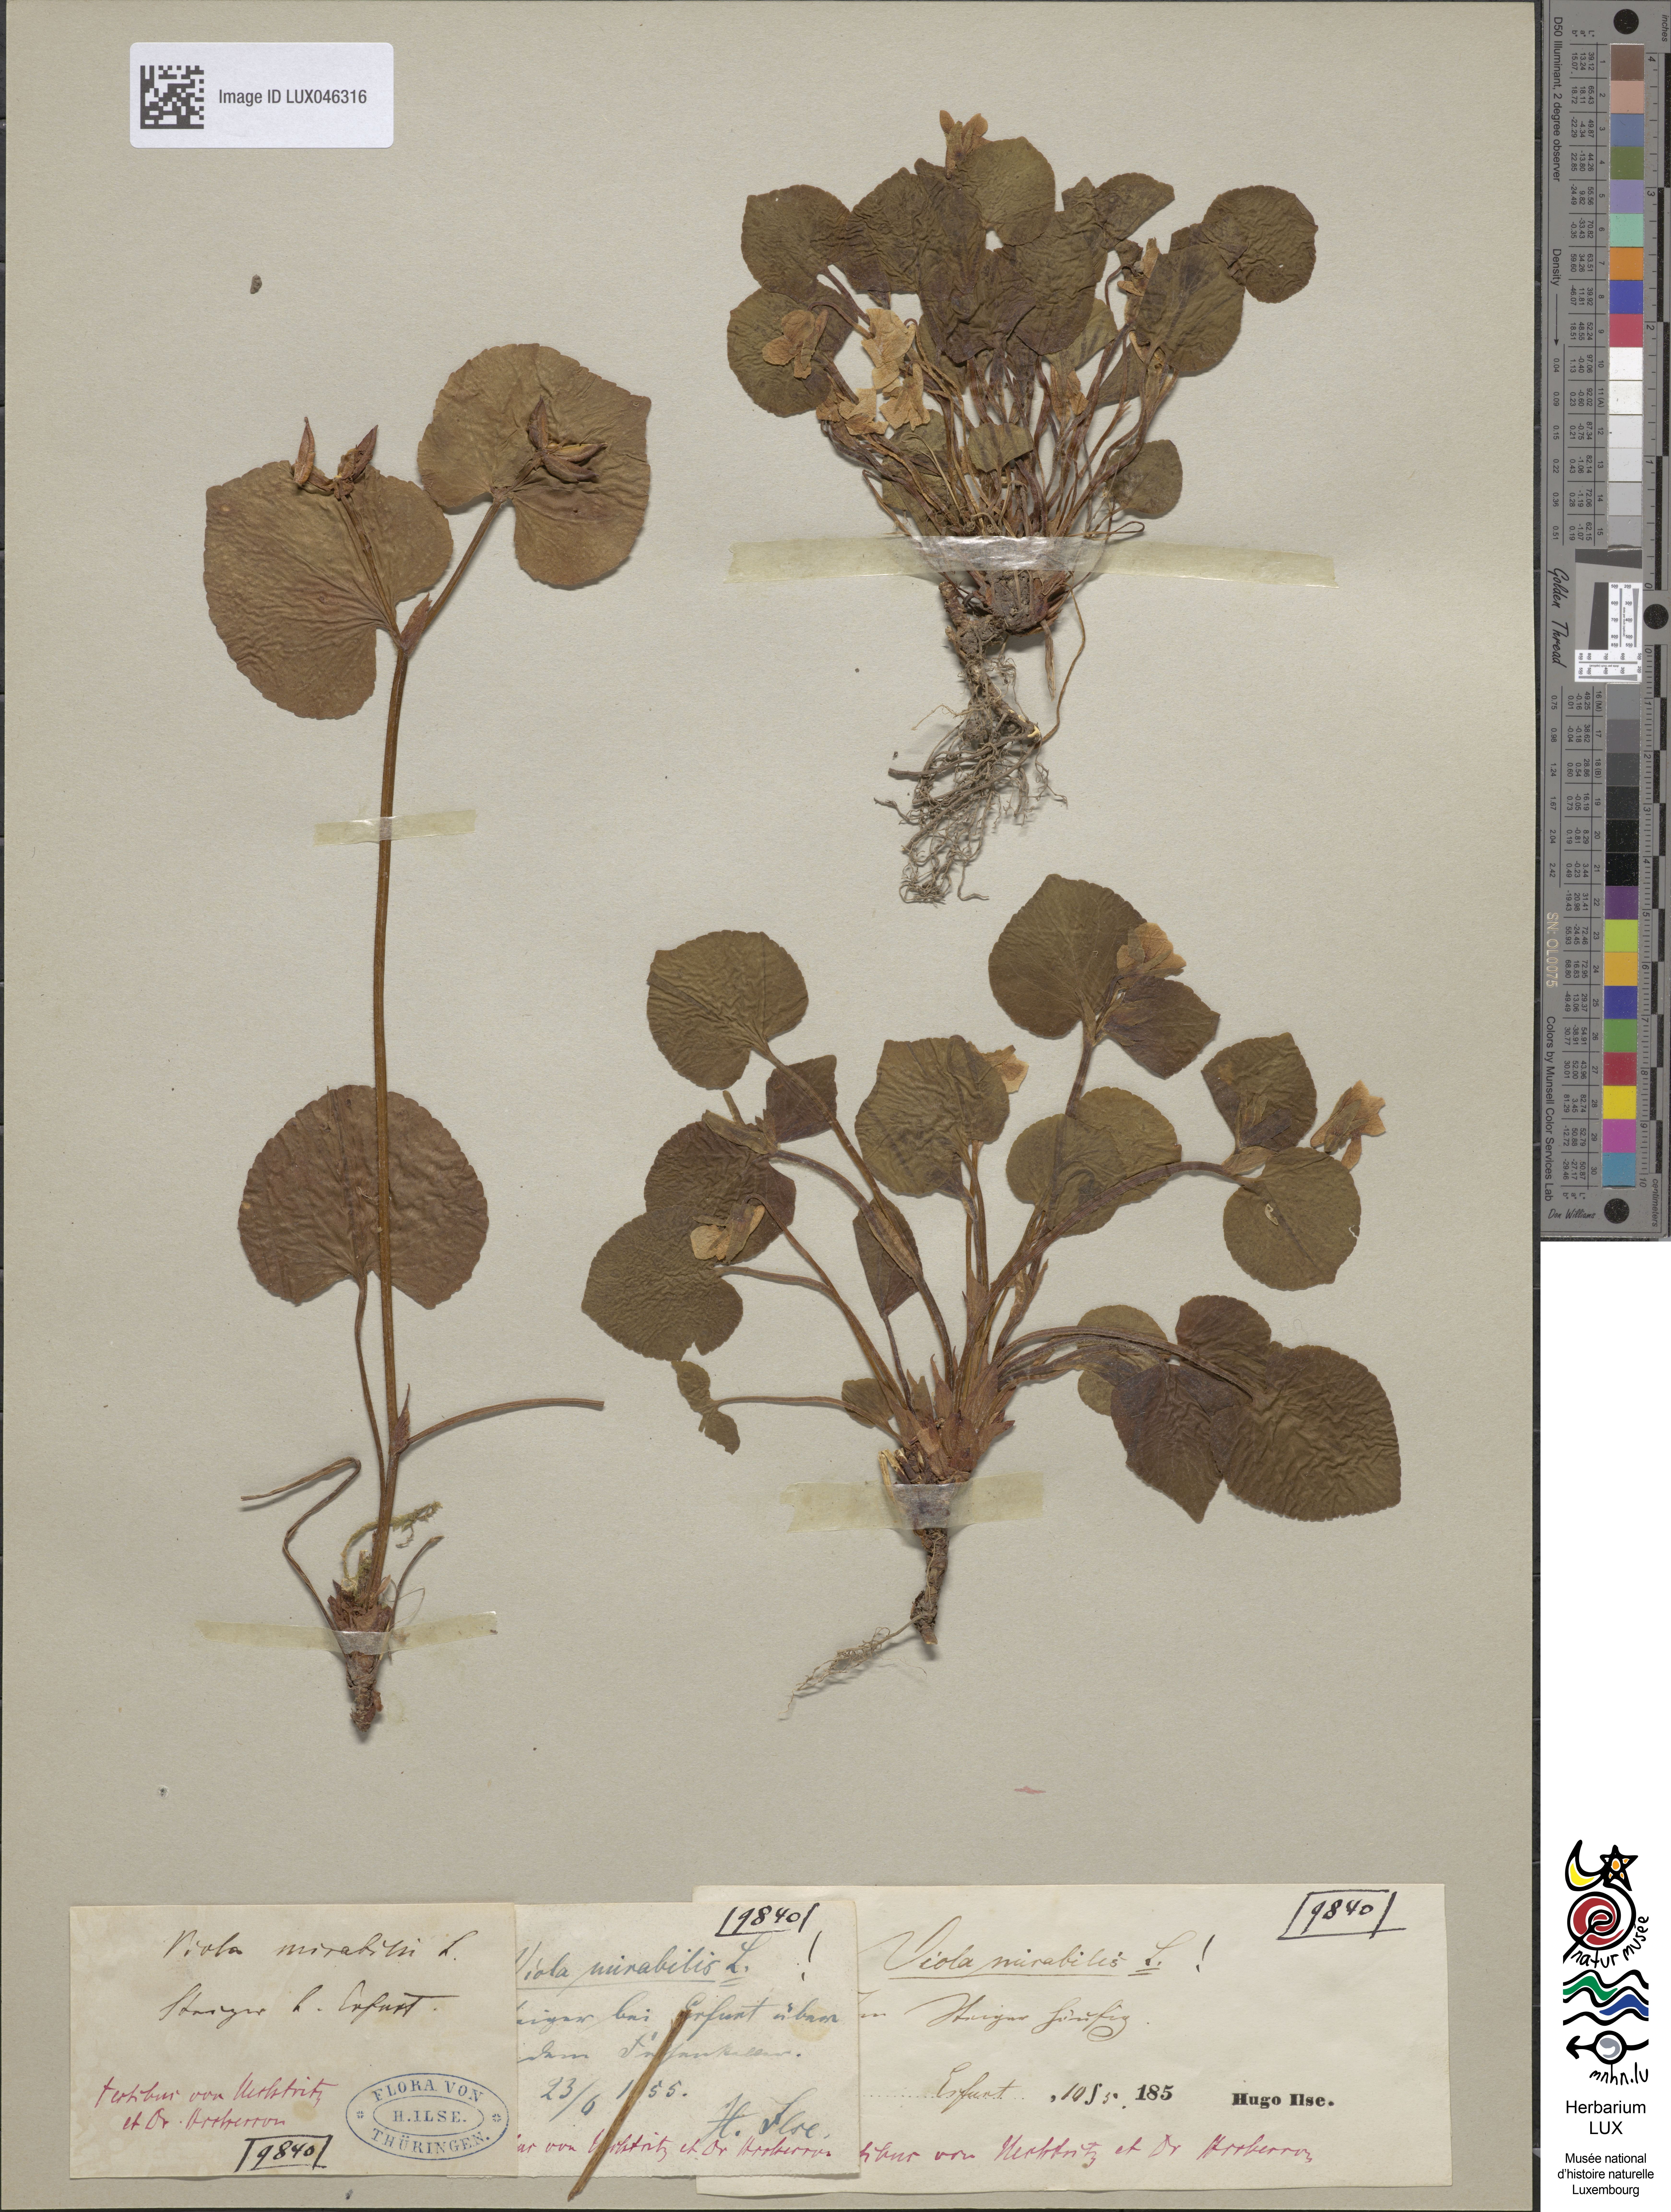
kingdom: Plantae
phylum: Tracheophyta
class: Magnoliopsida
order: Malpighiales
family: Violaceae
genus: Viola
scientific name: Viola mirabilis
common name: Wonder violet
